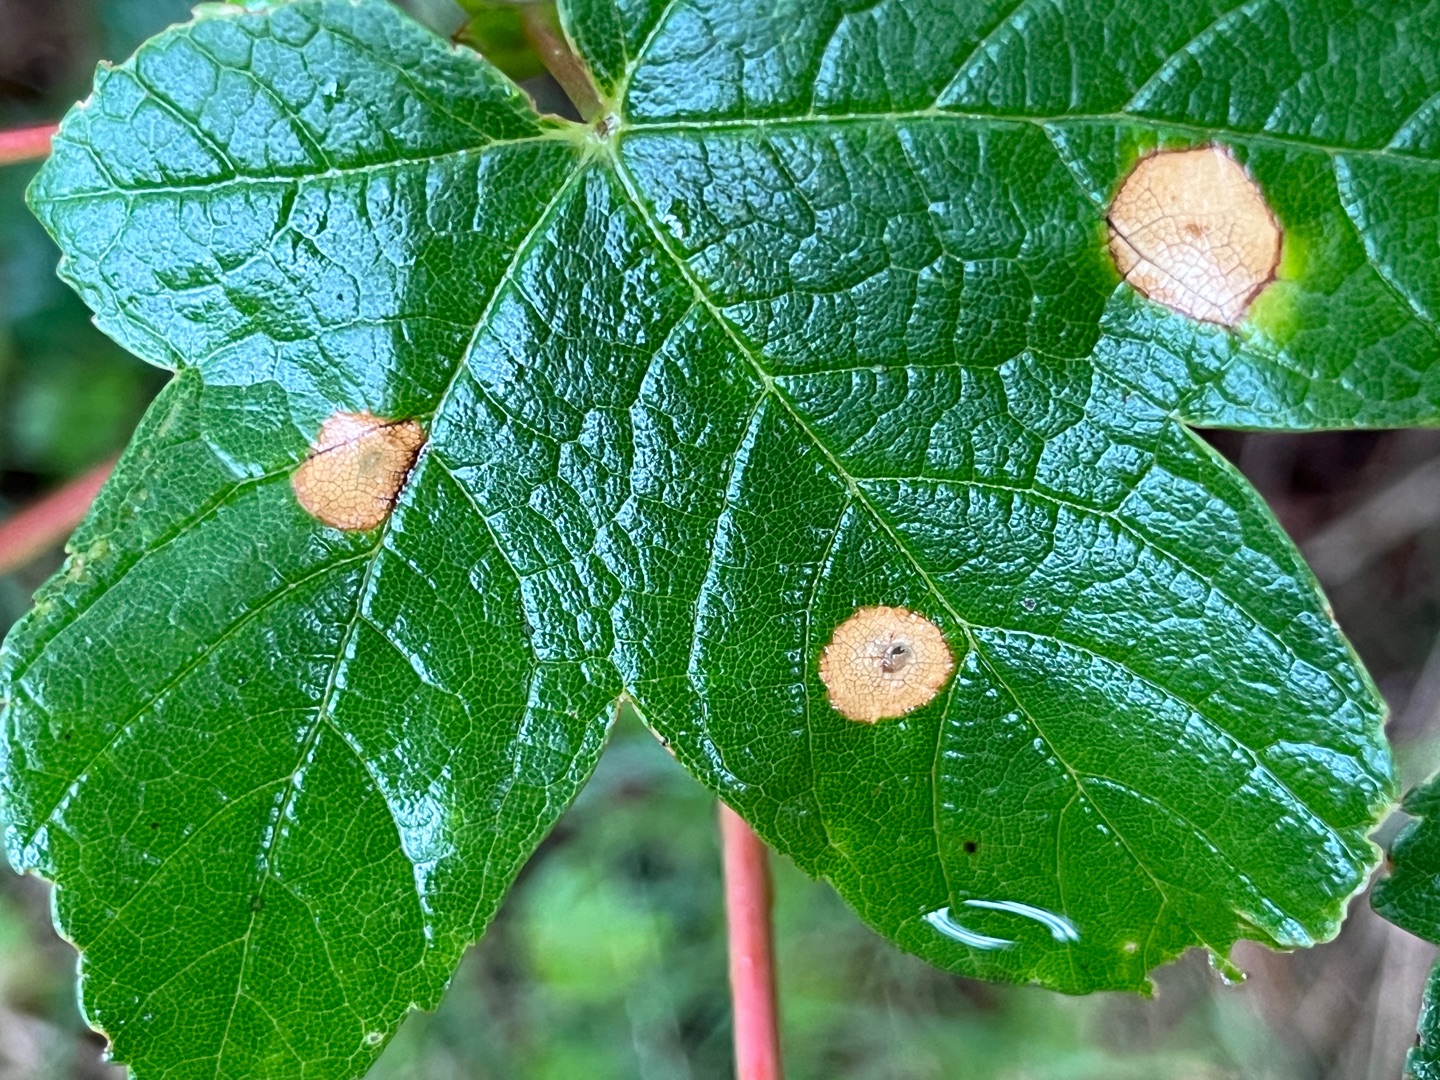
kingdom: Animalia
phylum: Arthropoda
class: Insecta
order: Diptera
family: Cecidomyiidae
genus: Drisina
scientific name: Drisina glutinosa
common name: Ahornblistgalmyg
